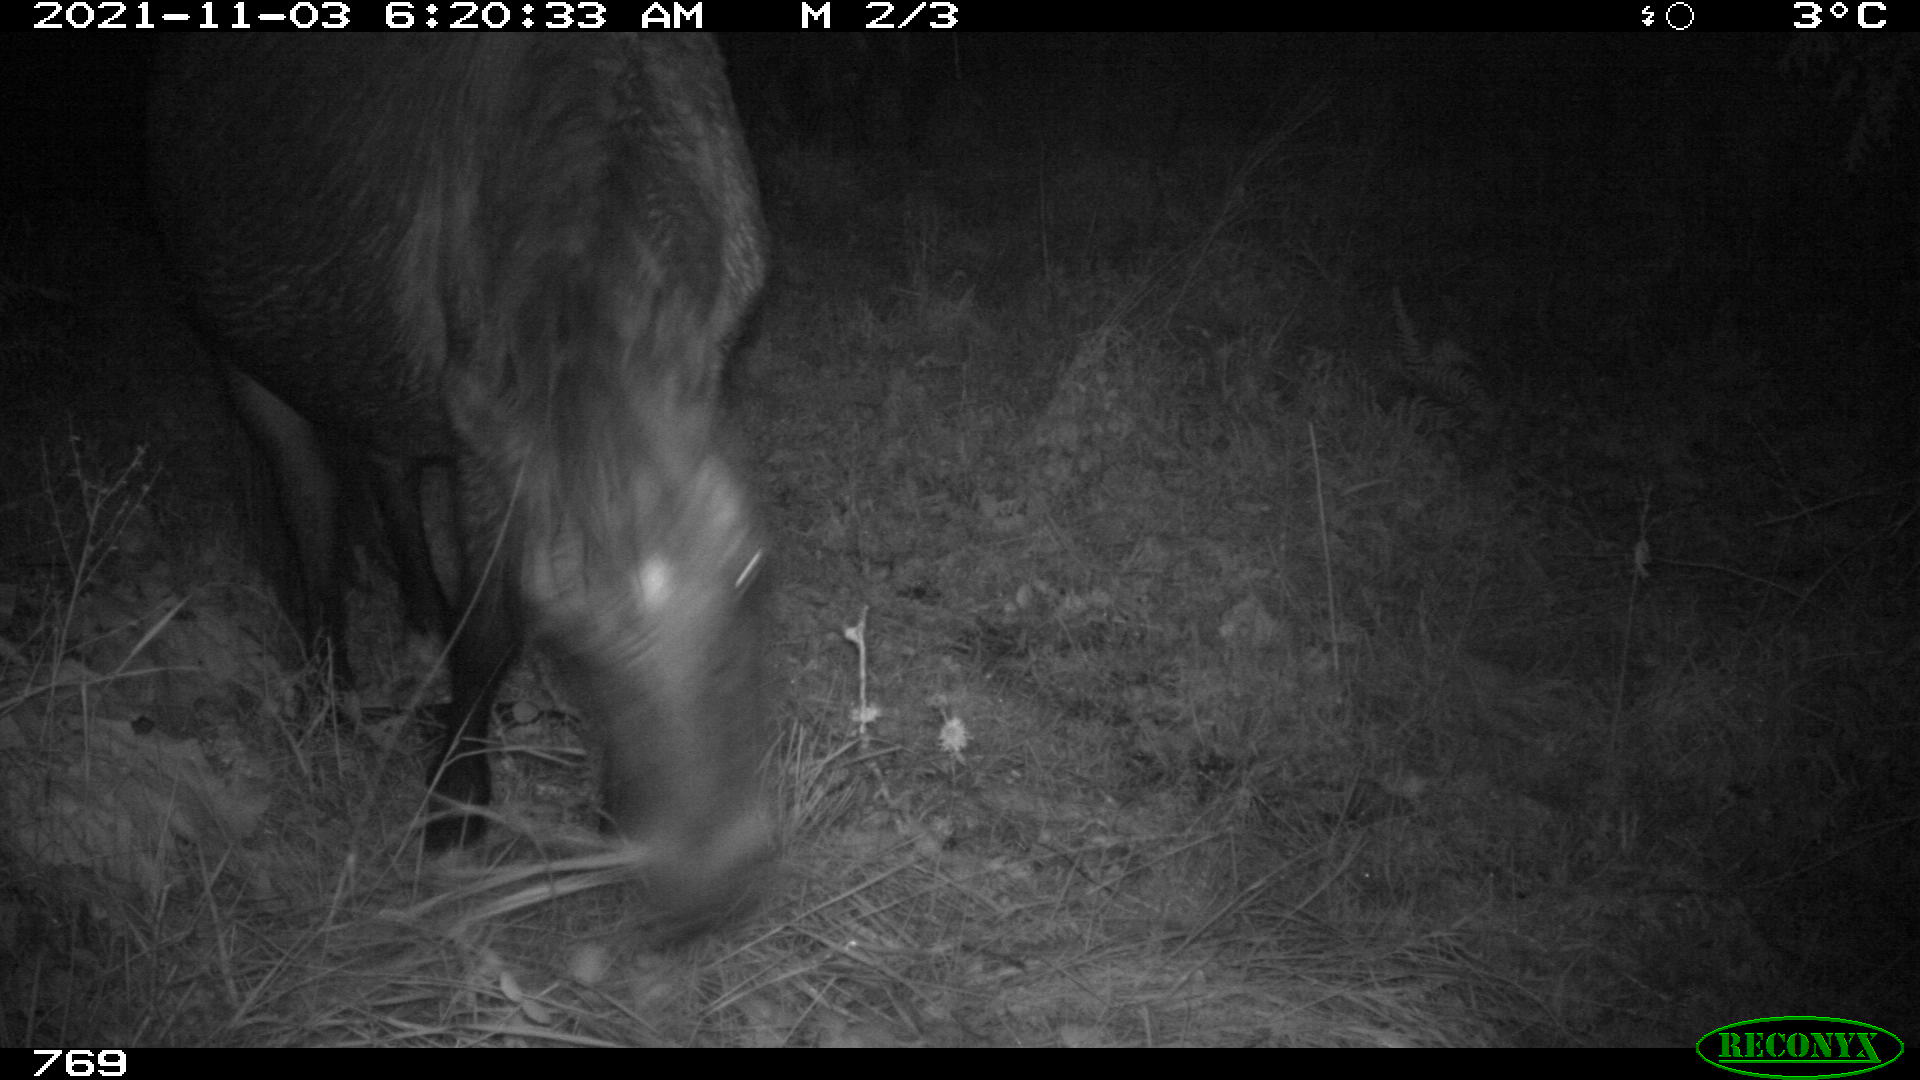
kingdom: Animalia
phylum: Chordata
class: Mammalia
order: Perissodactyla
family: Equidae
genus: Equus
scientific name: Equus caballus
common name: Horse
